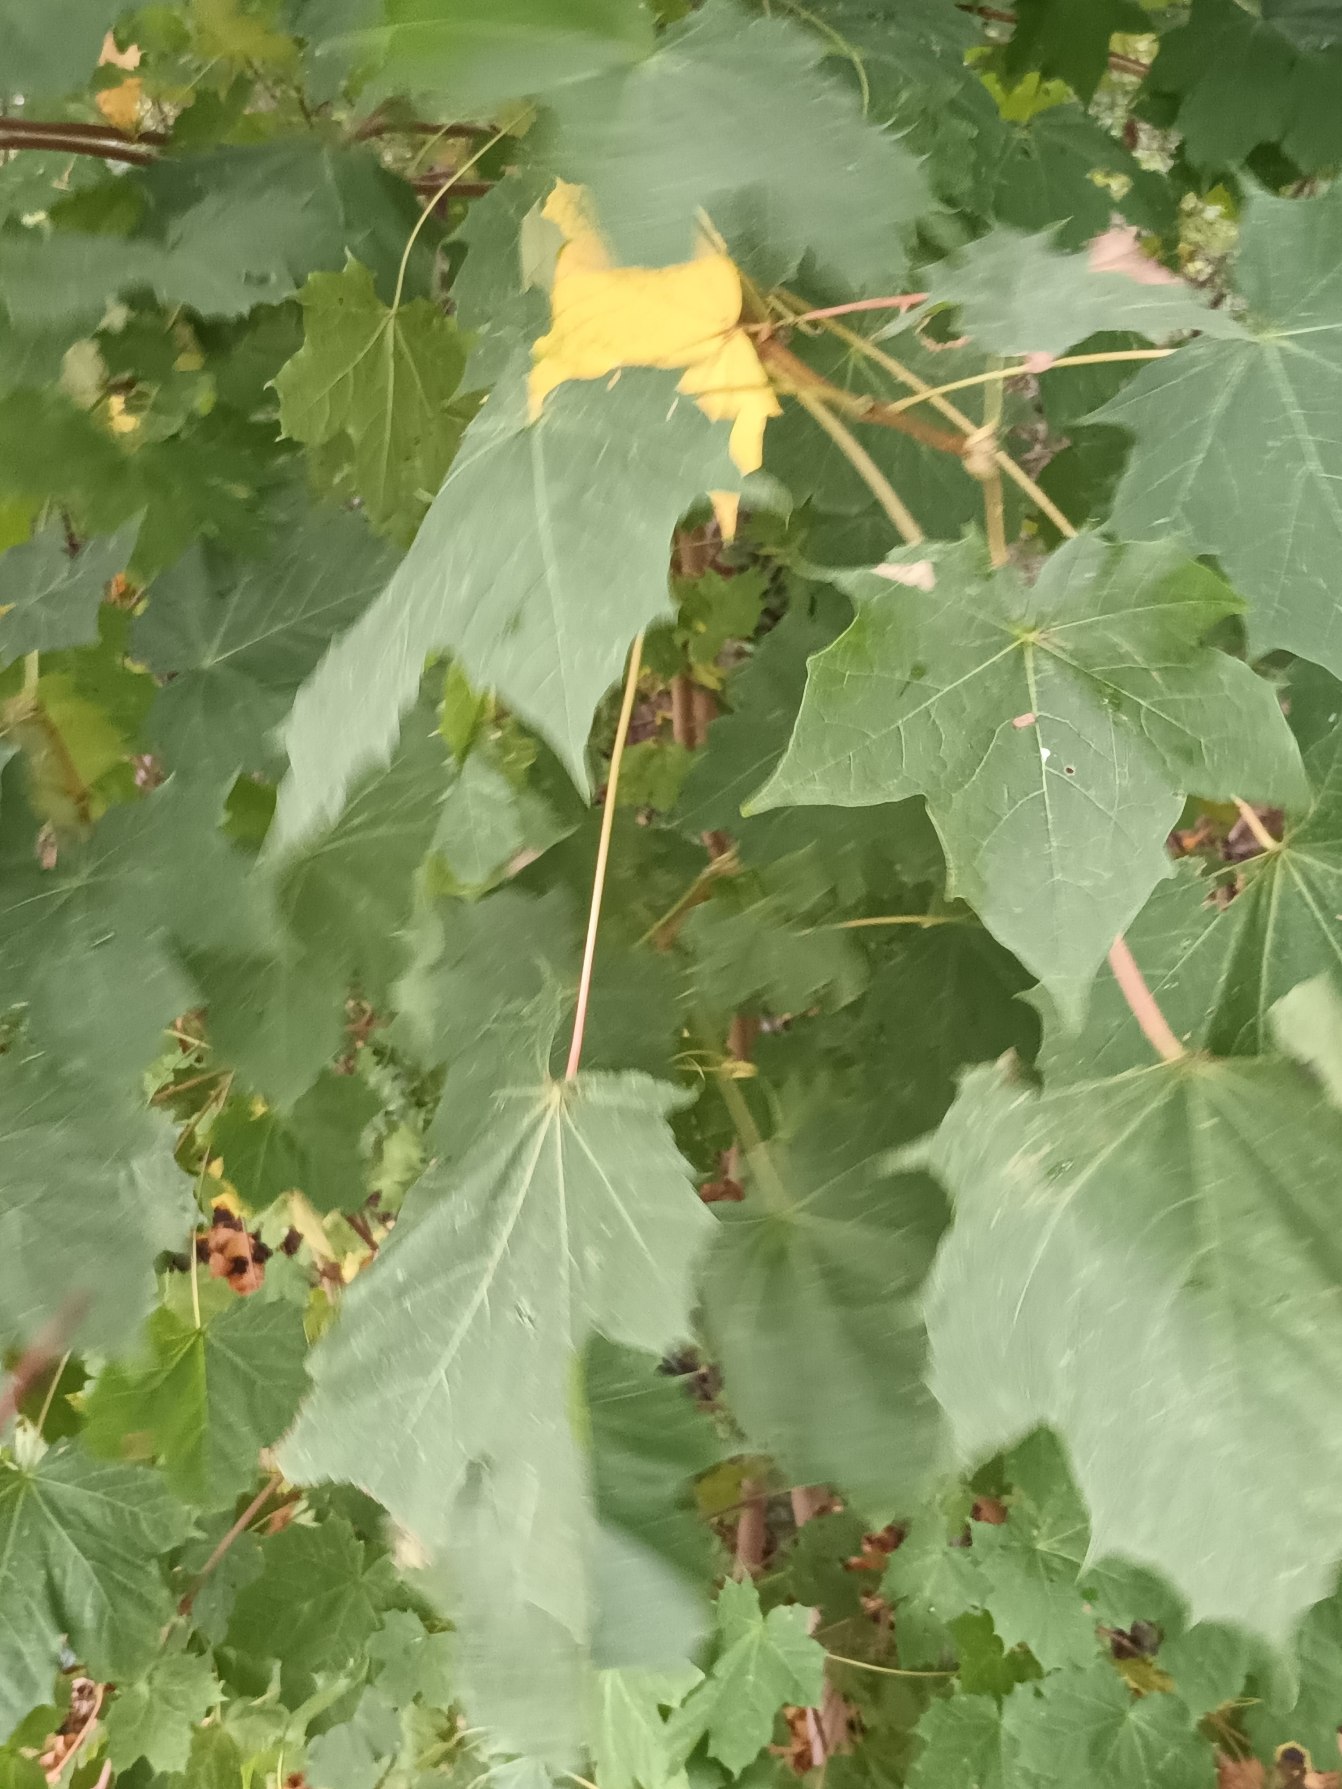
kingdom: Plantae
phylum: Tracheophyta
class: Magnoliopsida
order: Sapindales
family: Sapindaceae
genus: Acer
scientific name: Acer platanoides
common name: Spids-løn
